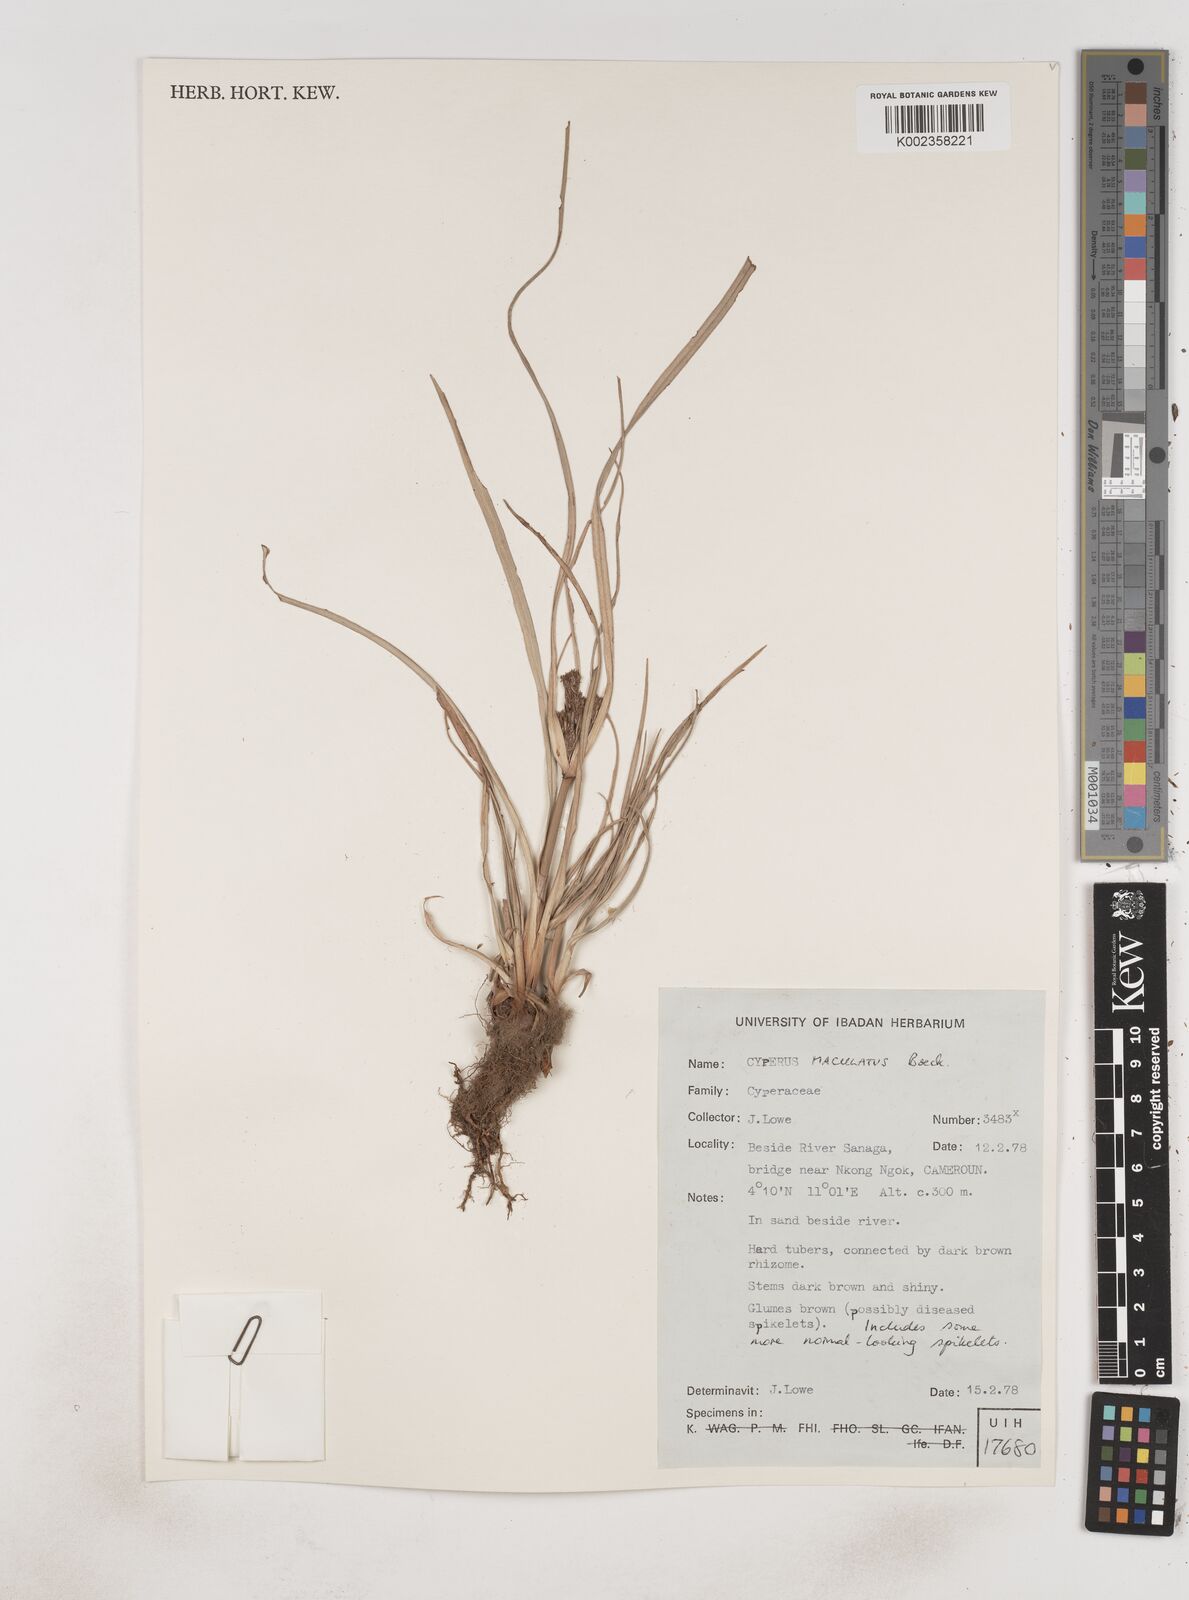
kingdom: Plantae
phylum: Tracheophyta
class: Liliopsida
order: Poales
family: Cyperaceae
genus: Cyperus
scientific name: Cyperus maculatus
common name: Maculated sedge
